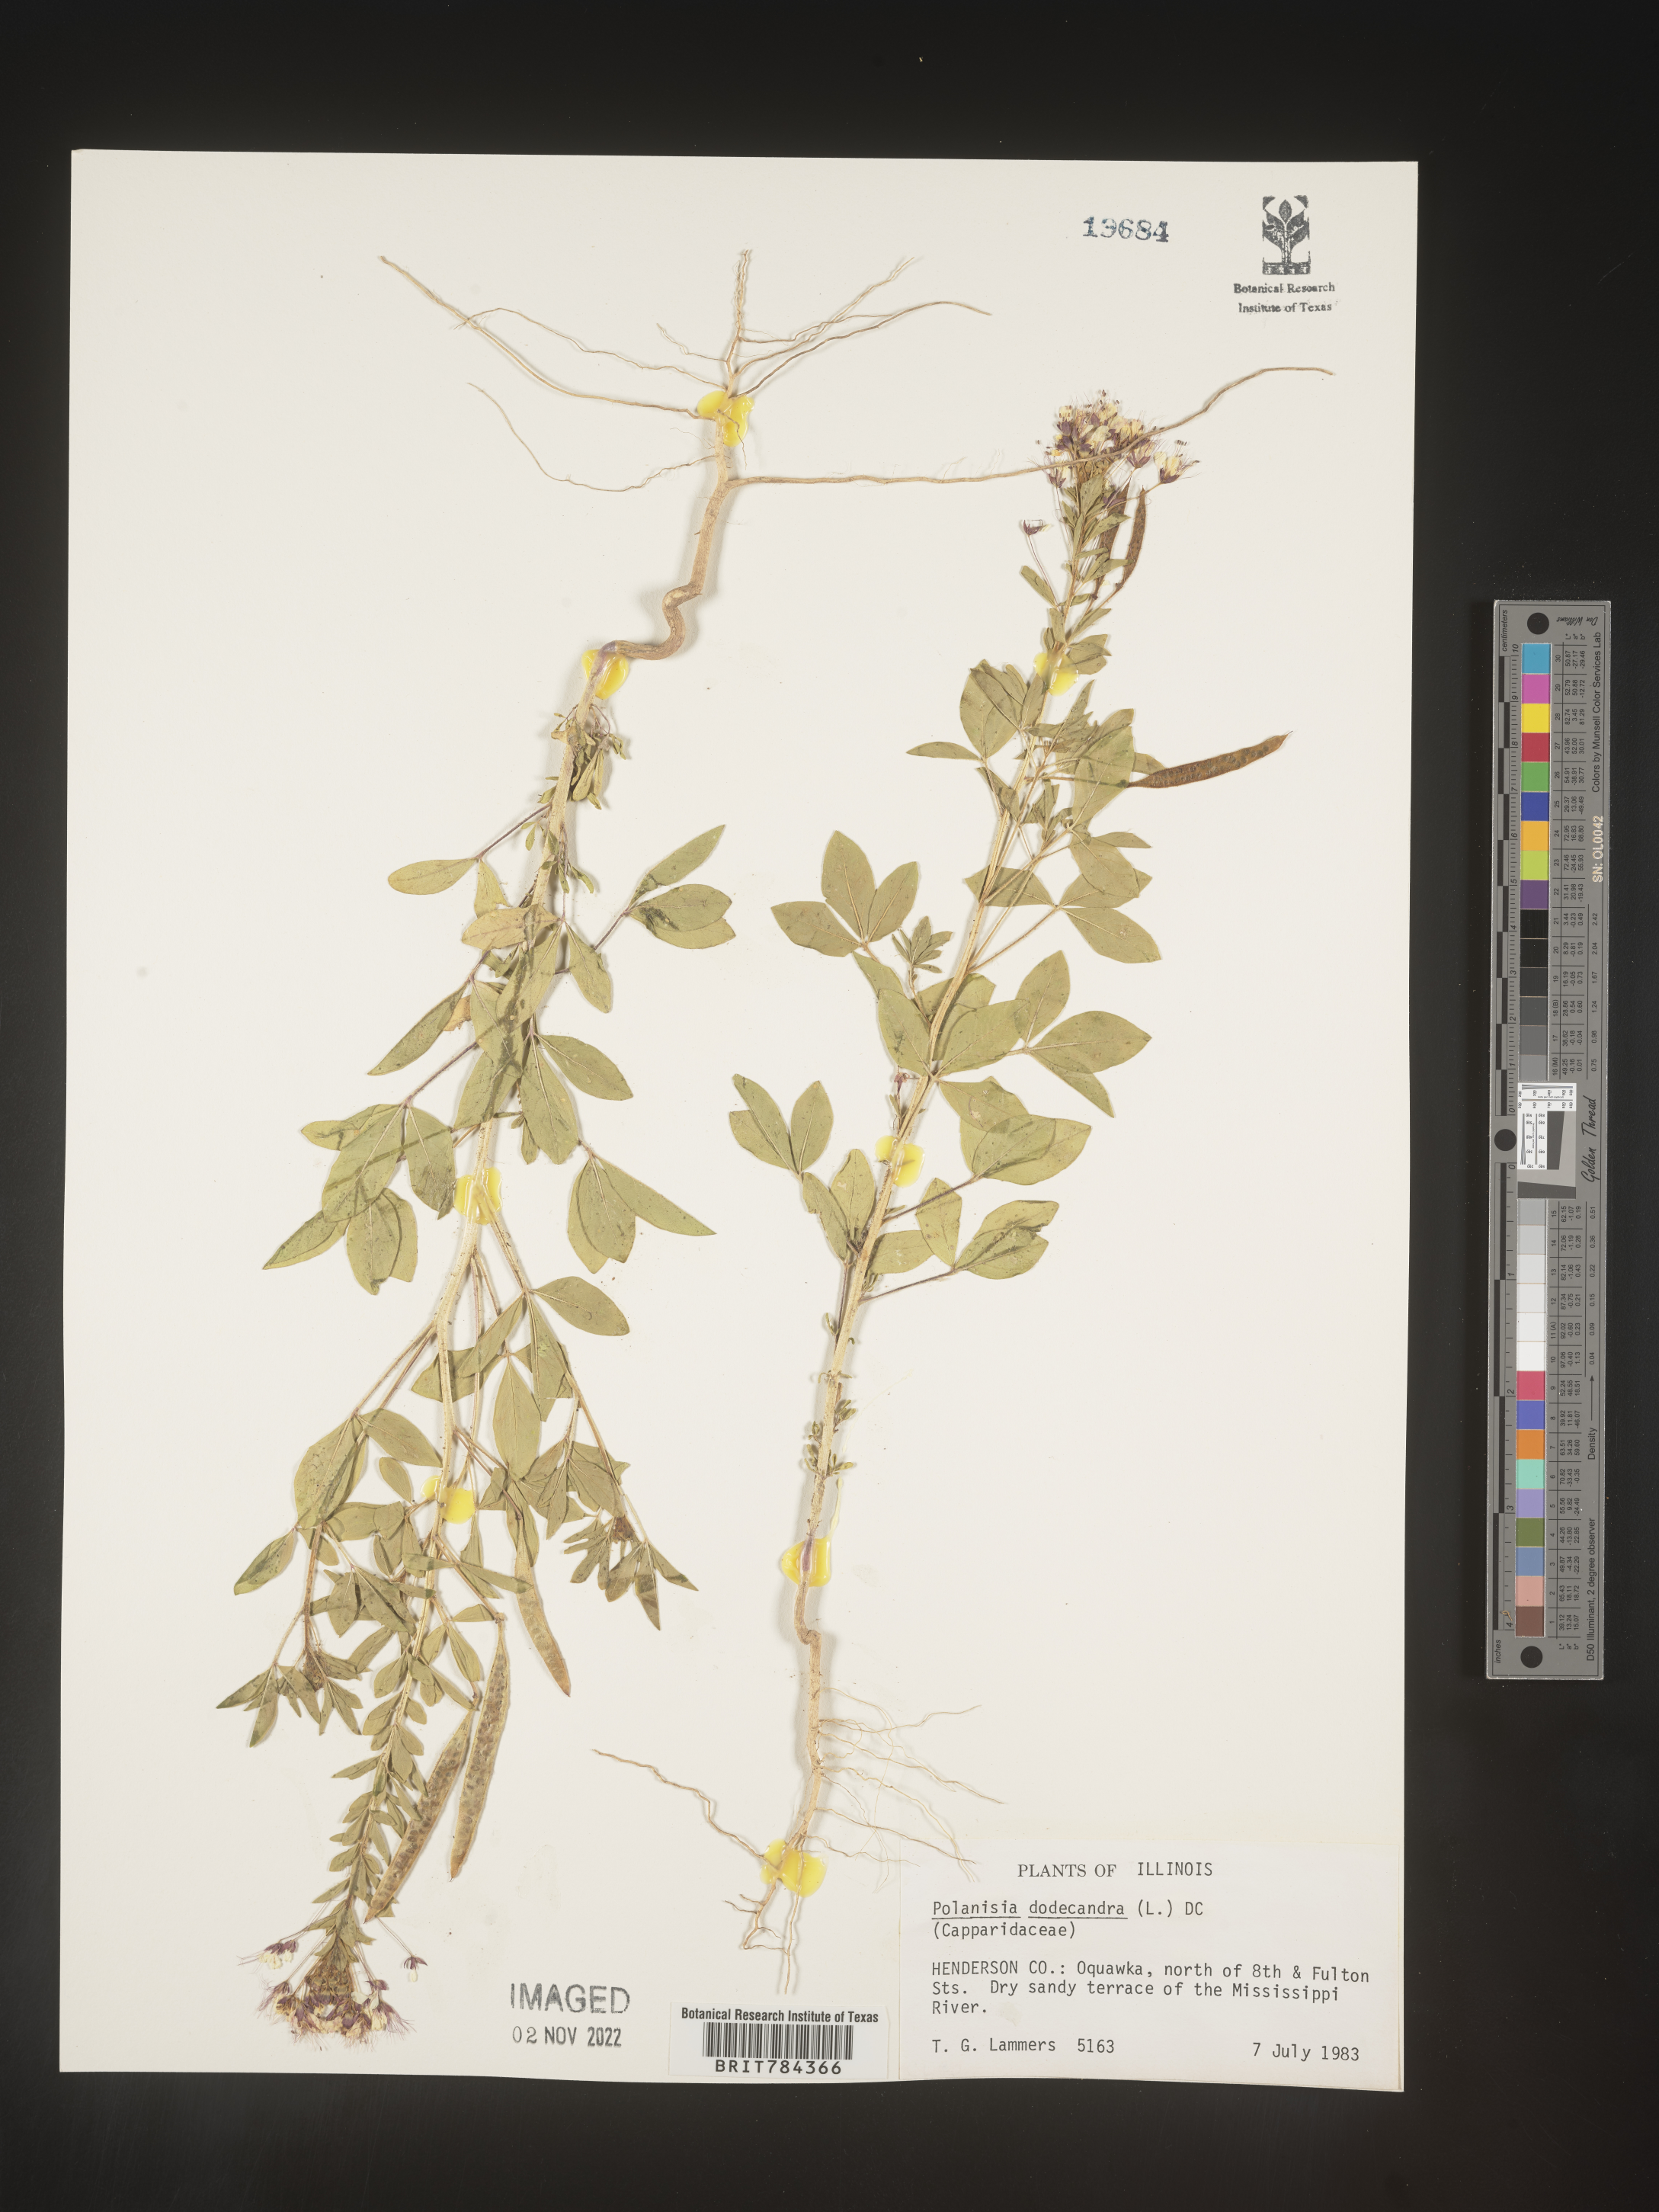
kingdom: Plantae
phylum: Tracheophyta
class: Magnoliopsida
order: Brassicales
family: Cleomaceae
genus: Polanisia
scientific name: Polanisia dodecandra
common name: Clammyweed
